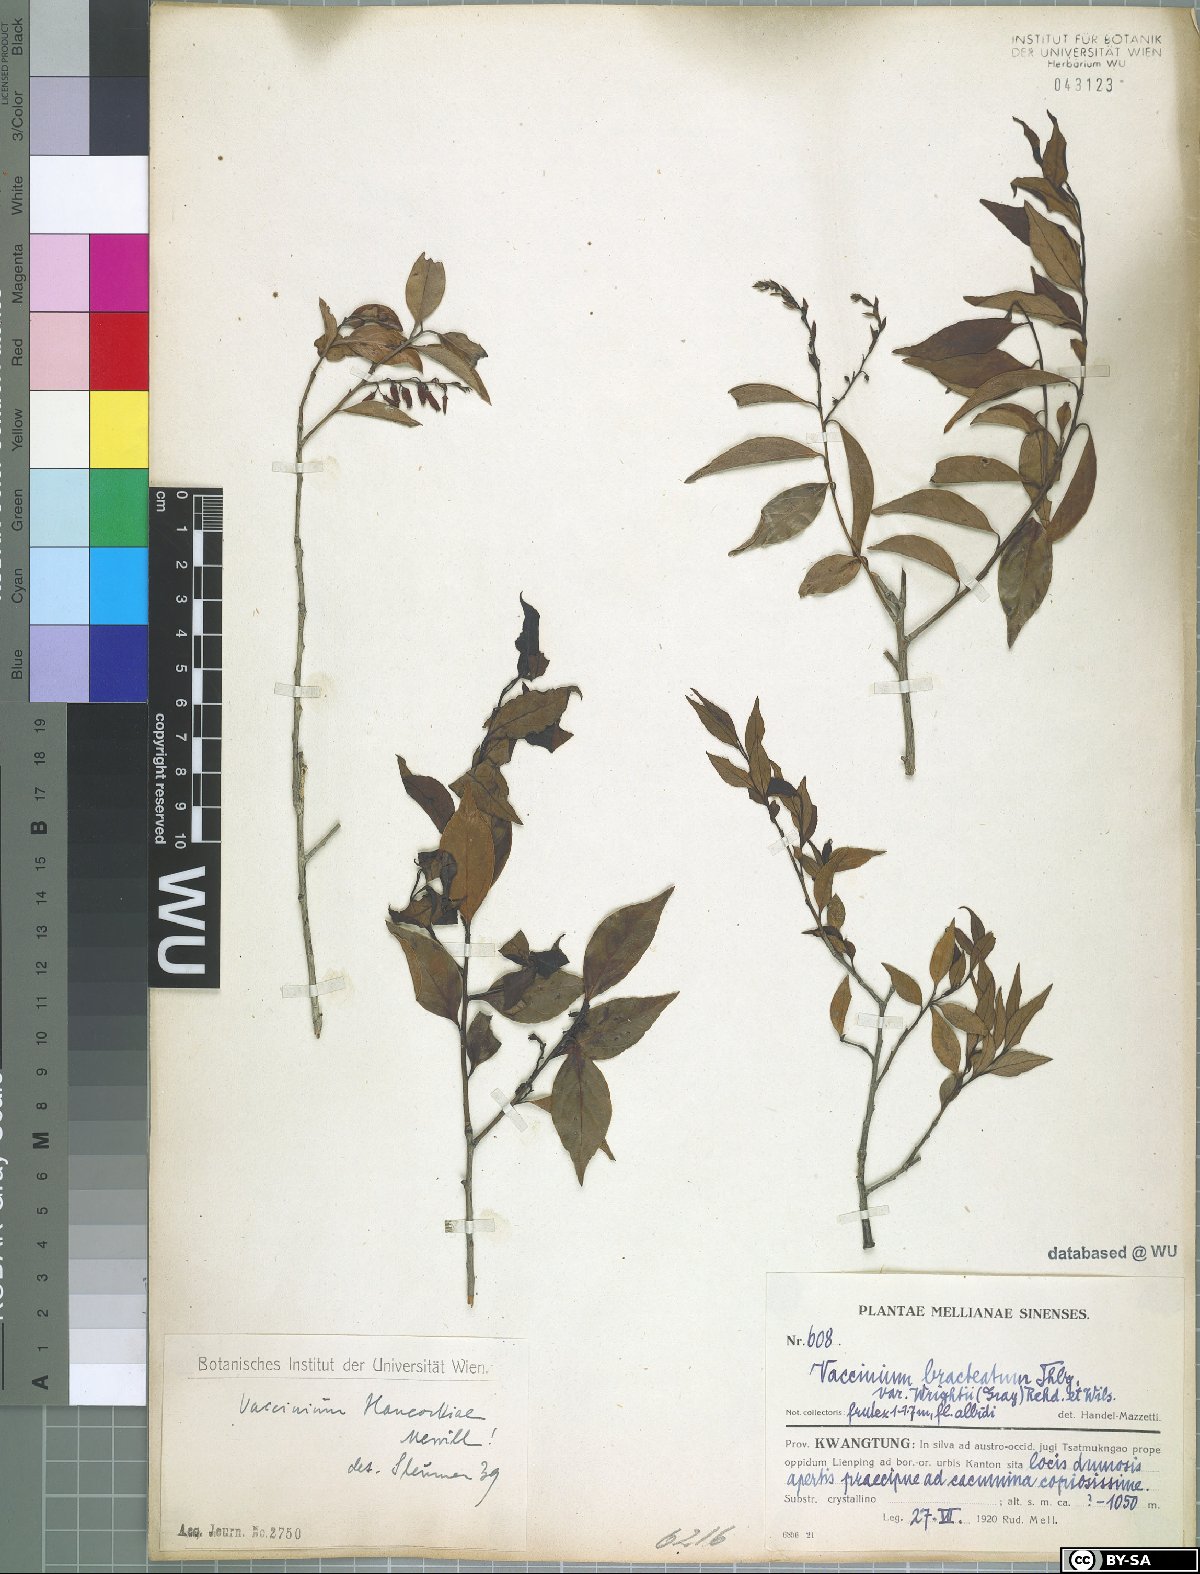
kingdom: Plantae
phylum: Tracheophyta
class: Magnoliopsida
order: Ericales
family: Ericaceae
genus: Vaccinium
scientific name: Vaccinium randaiensis
